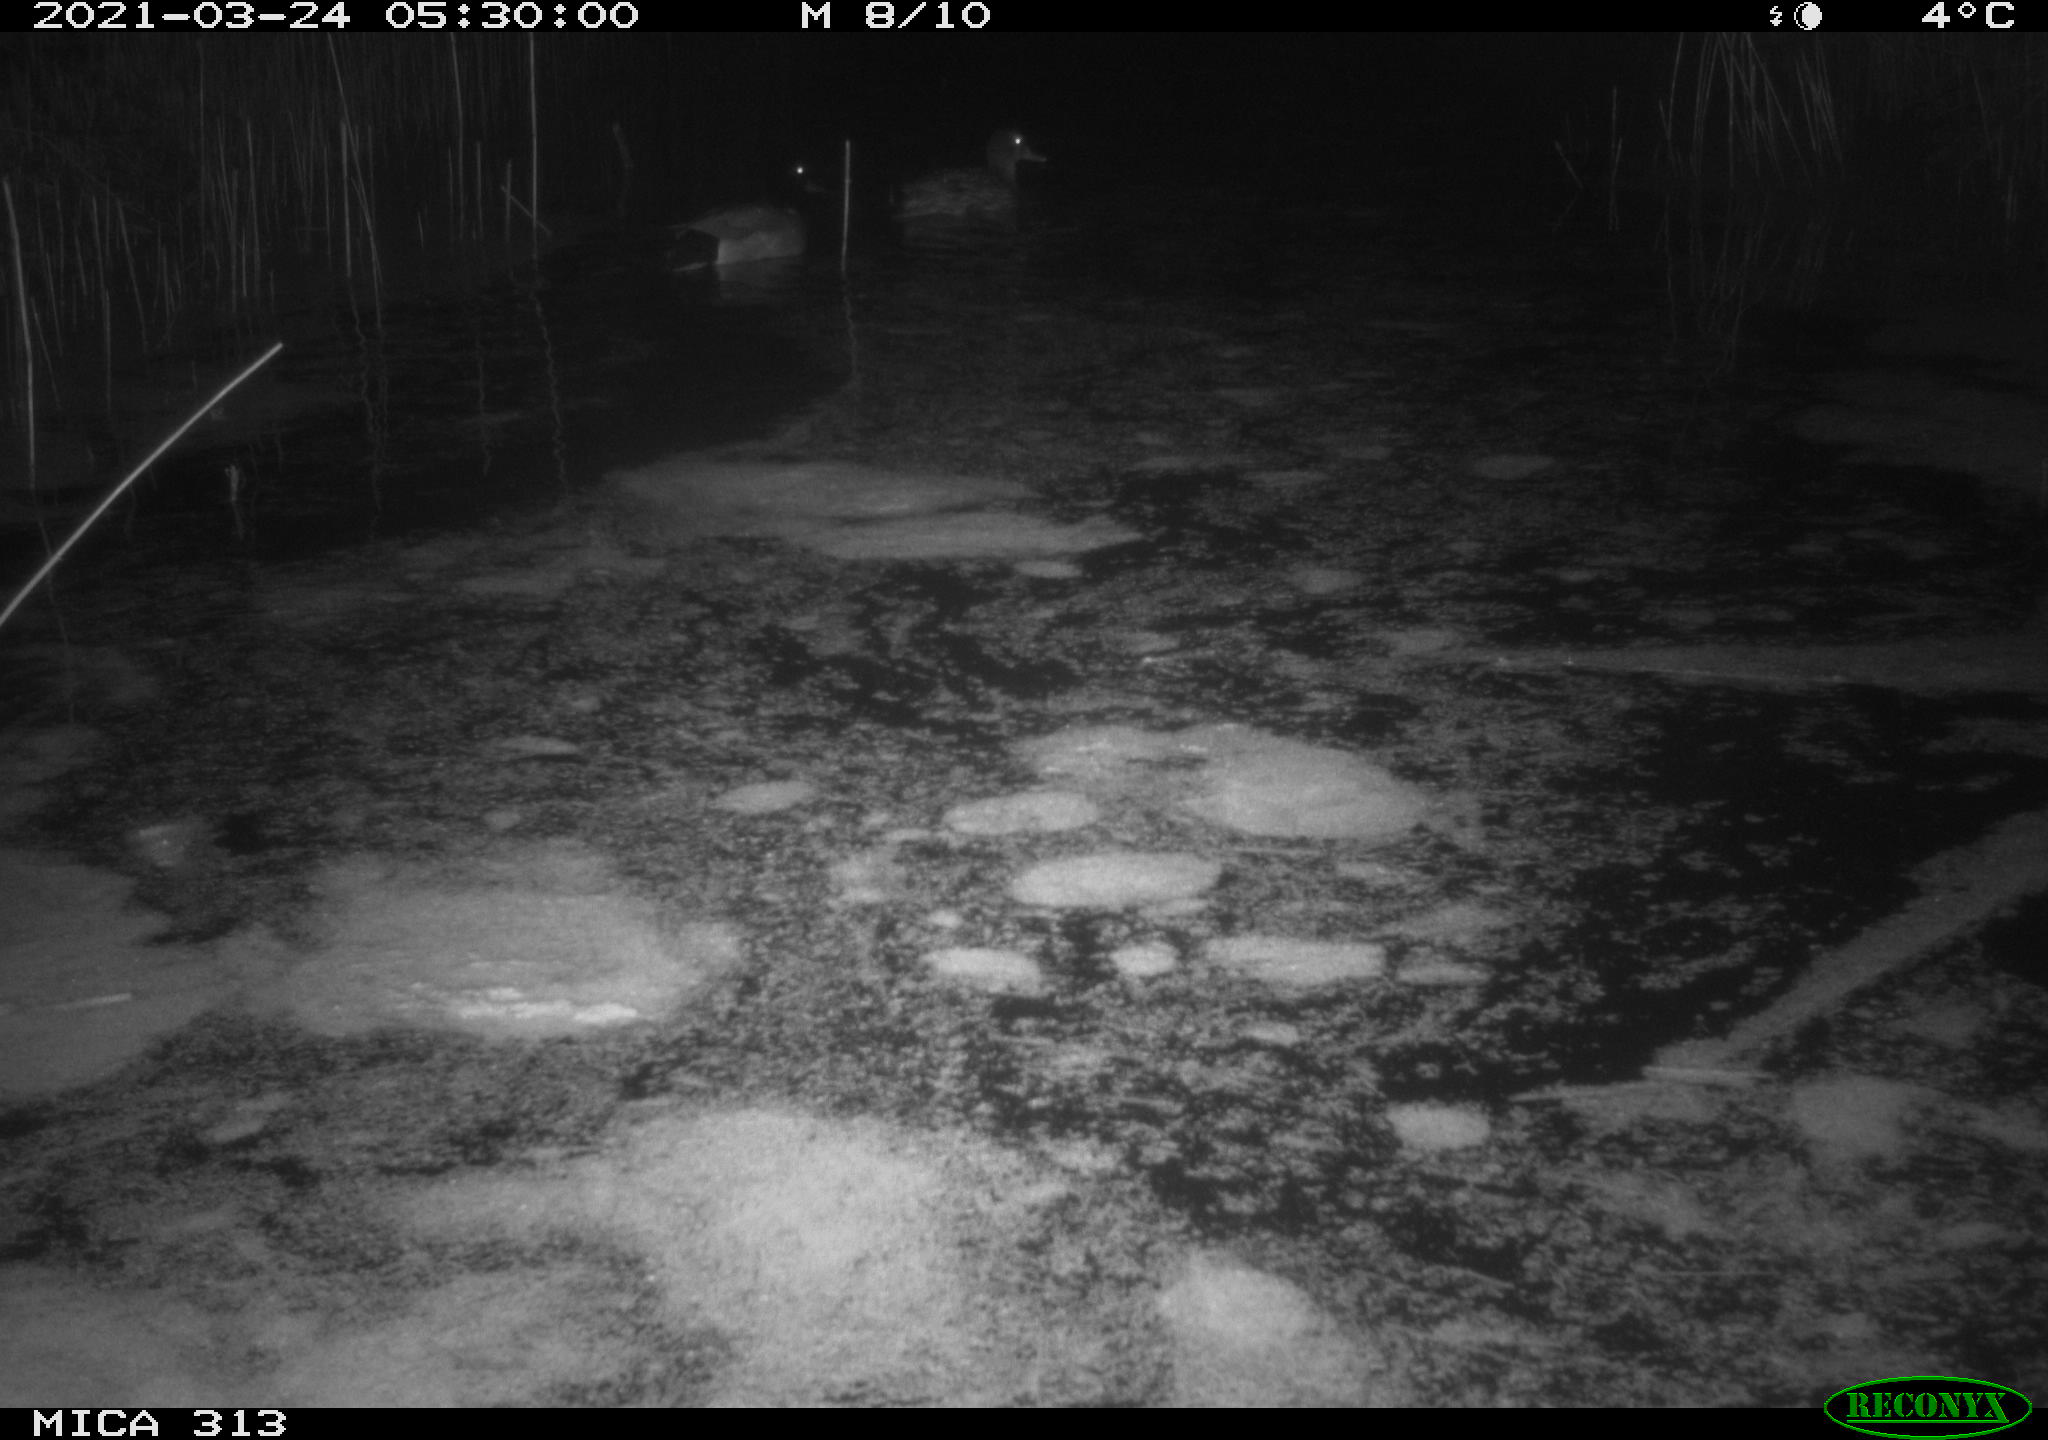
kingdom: Animalia
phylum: Chordata
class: Aves
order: Anseriformes
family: Anatidae
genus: Anas
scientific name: Anas platyrhynchos
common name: Mallard
